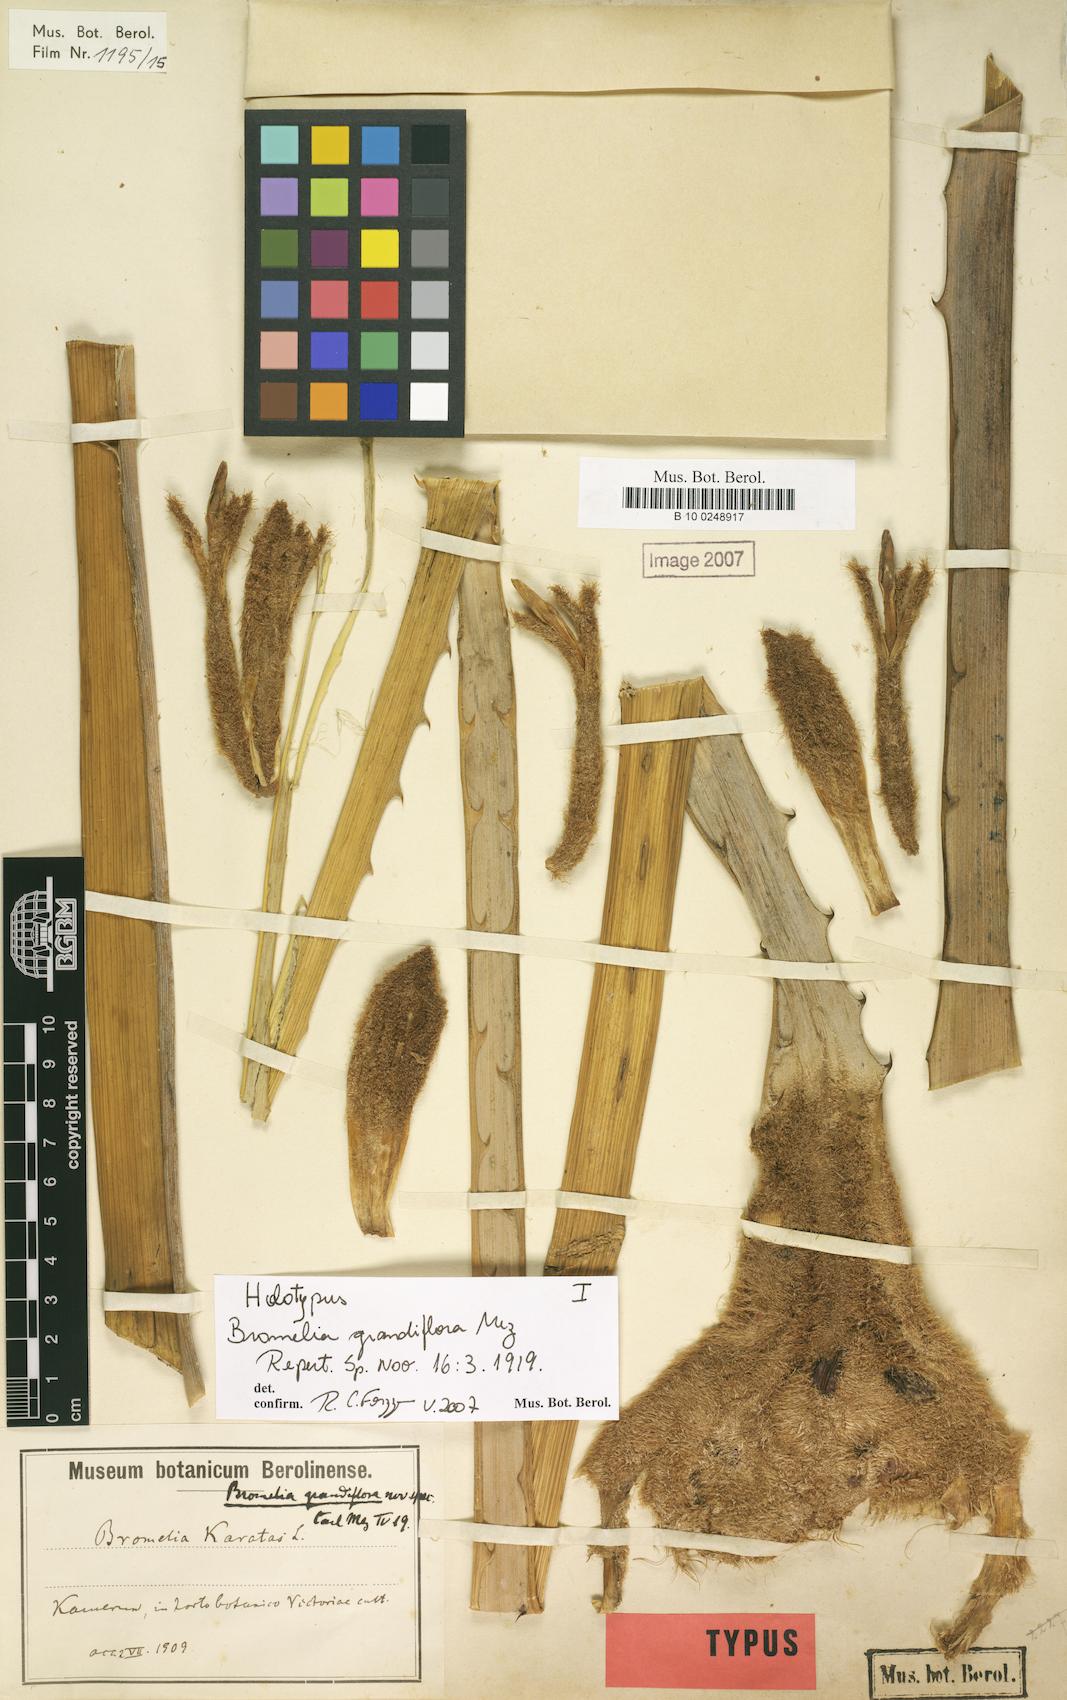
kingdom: Plantae
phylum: Tracheophyta
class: Liliopsida
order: Poales
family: Bromeliaceae
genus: Bromelia
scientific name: Bromelia grandiflora
